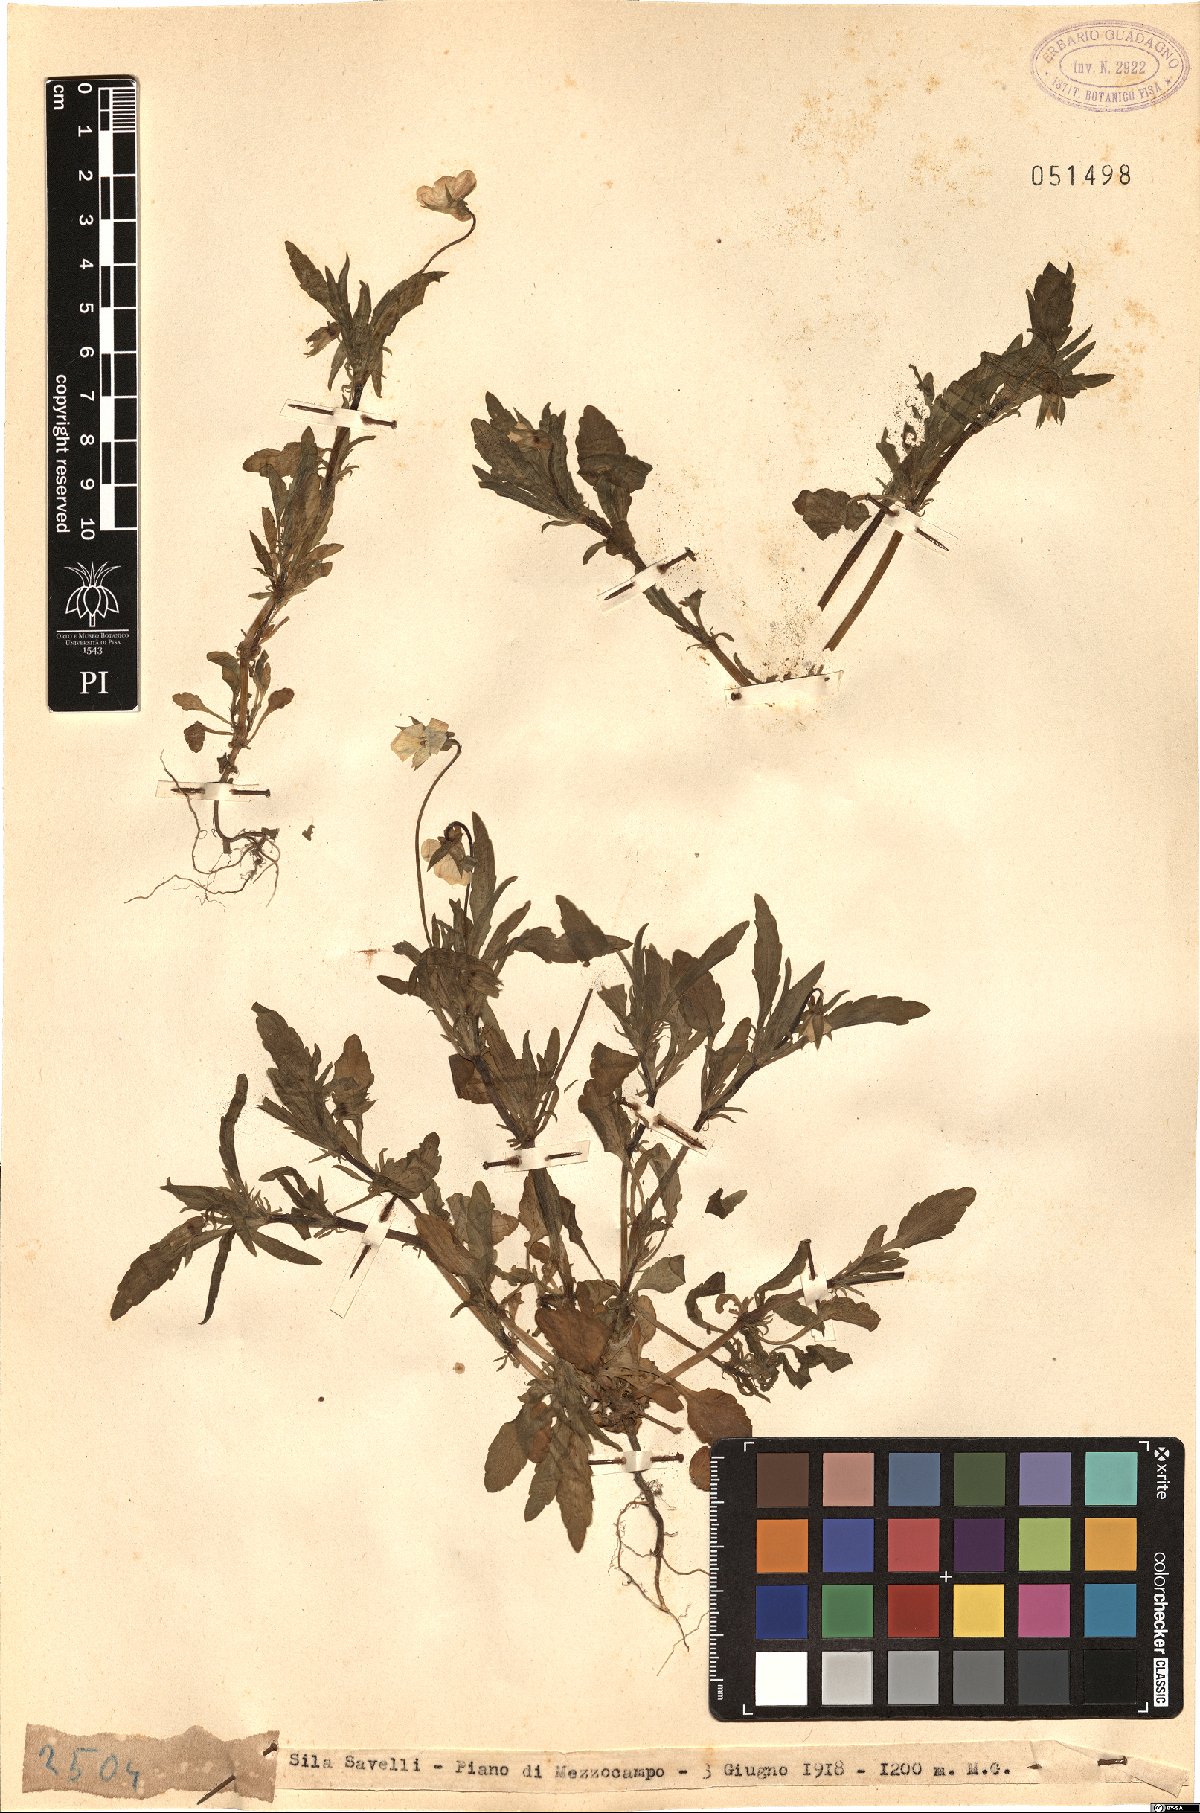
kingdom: Plantae
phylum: Tracheophyta
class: Magnoliopsida
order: Malpighiales
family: Violaceae
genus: Viola
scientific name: Viola
